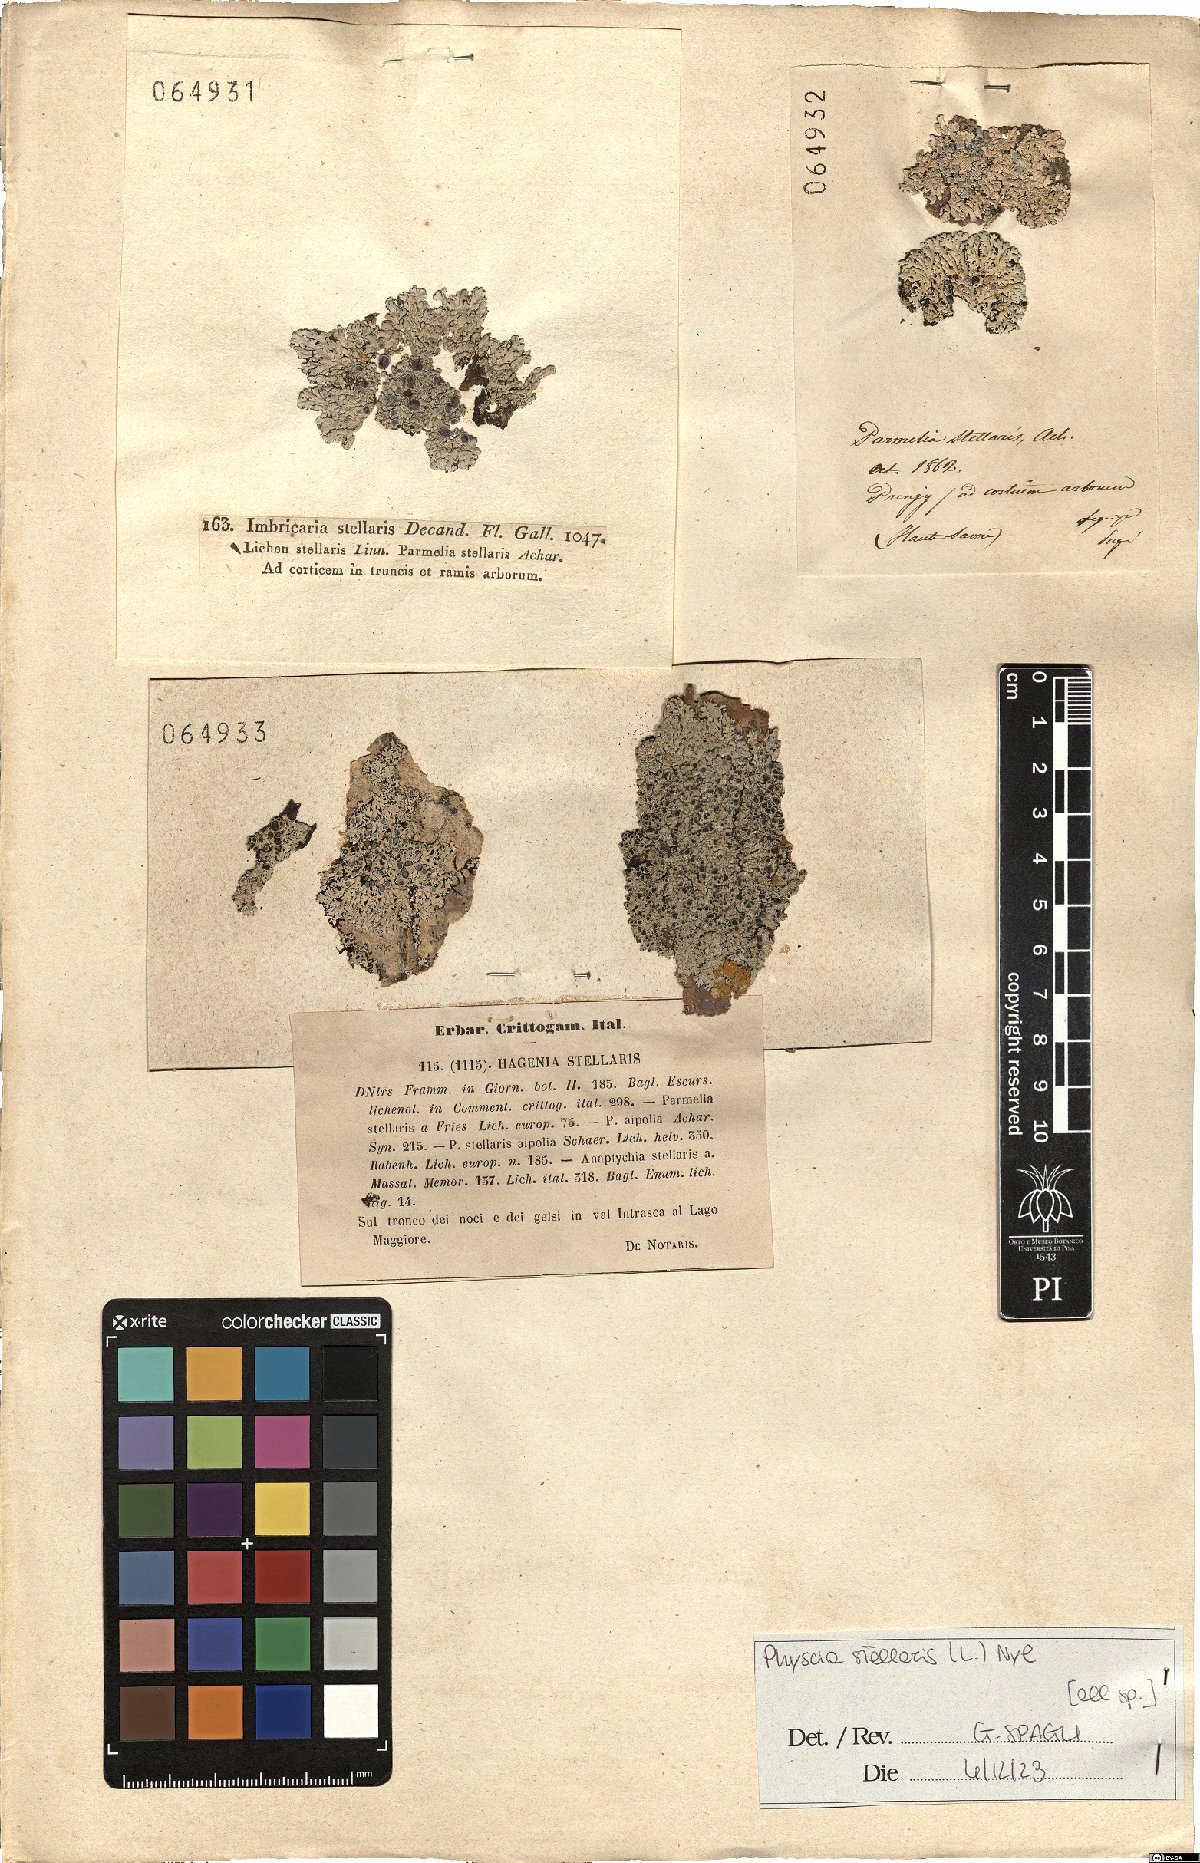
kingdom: Fungi
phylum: Ascomycota
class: Lecanoromycetes
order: Caliciales
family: Physciaceae
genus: Physcia
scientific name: Physcia stellaris
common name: Star rosette lichen
